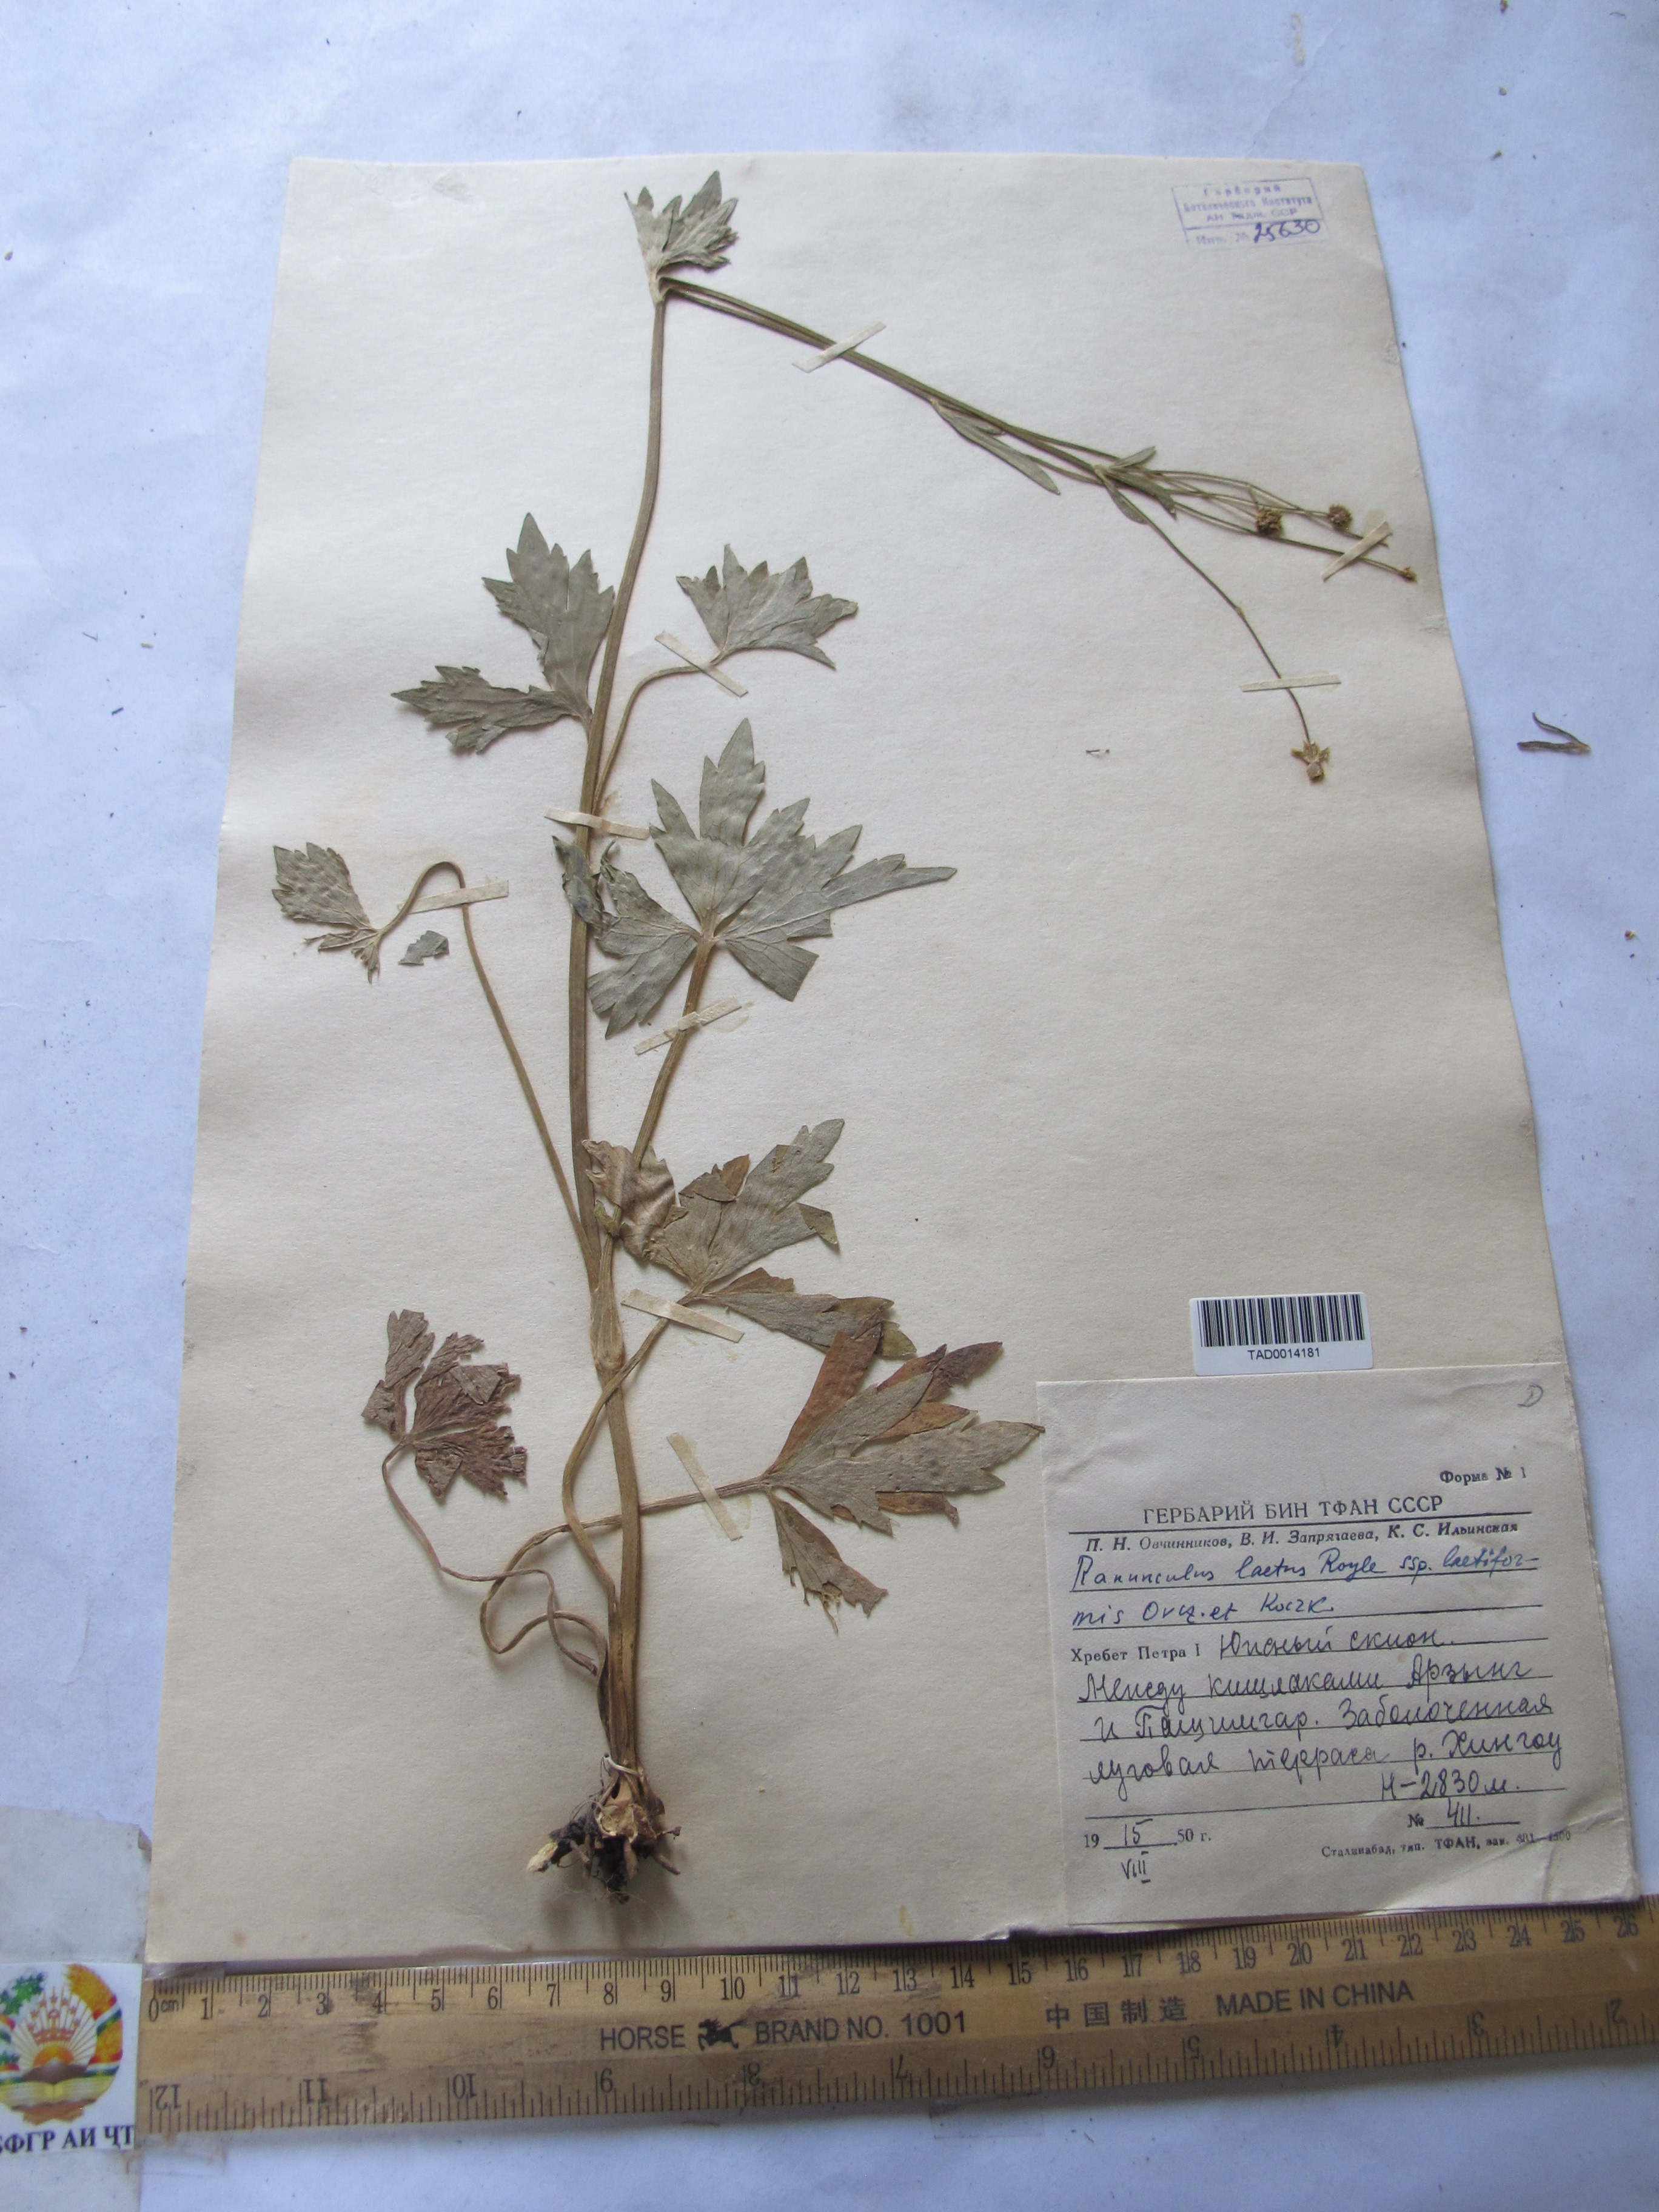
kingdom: Plantae
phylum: Tracheophyta
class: Magnoliopsida
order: Ranunculales
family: Ranunculaceae
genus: Ranunculus
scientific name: Ranunculus distans
